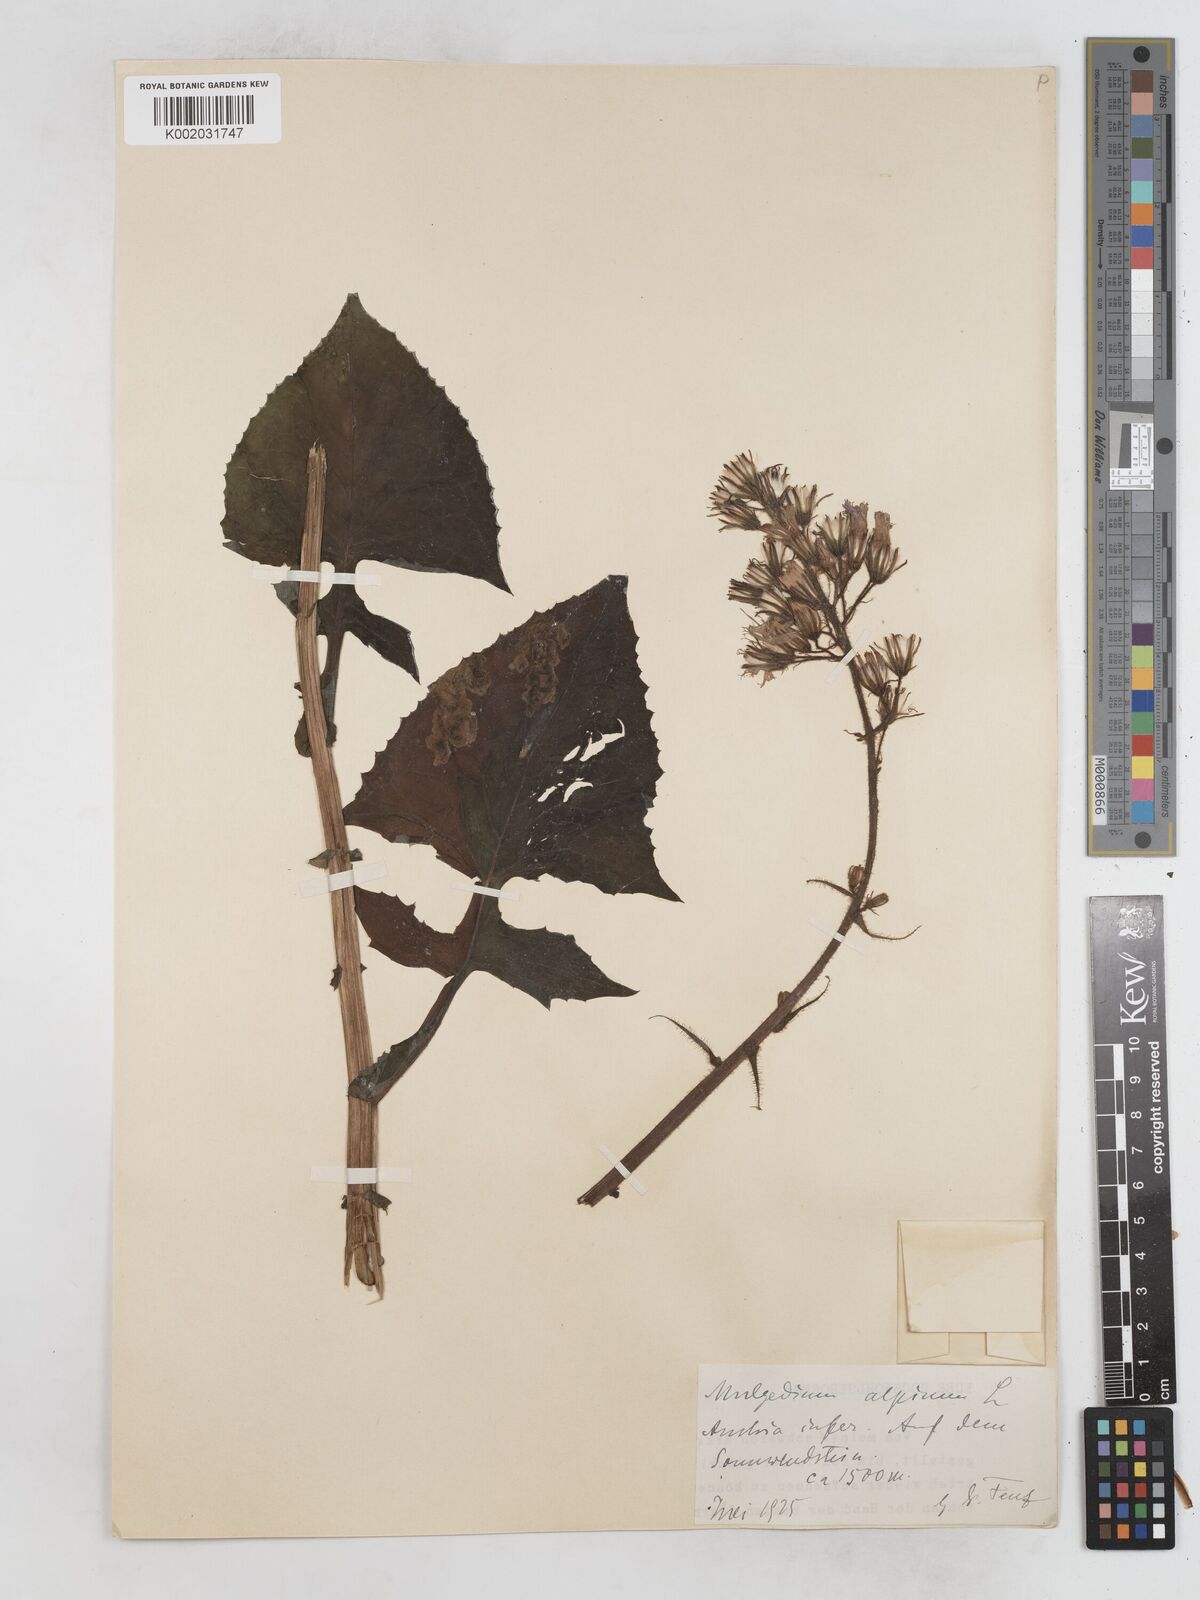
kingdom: Plantae
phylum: Tracheophyta
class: Magnoliopsida
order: Asterales
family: Asteraceae
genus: Cicerbita
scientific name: Cicerbita alpina
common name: Alpine blue-sow-thistle
